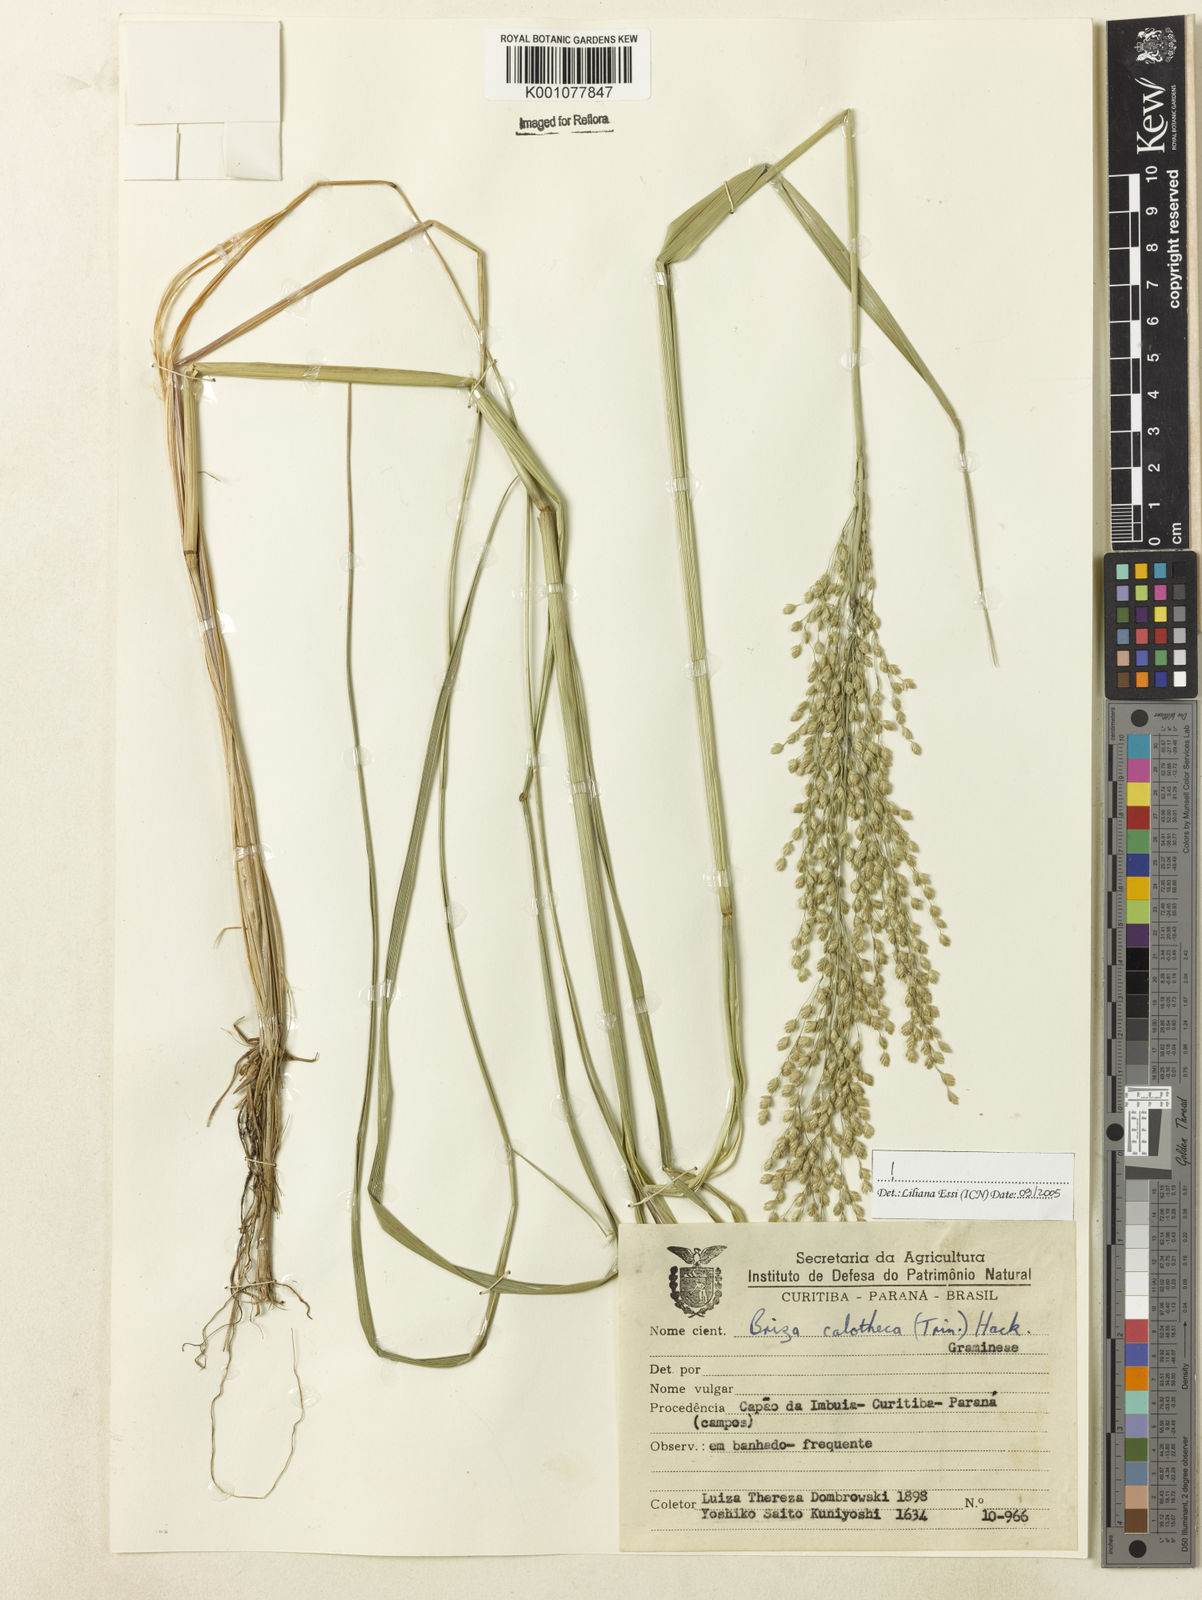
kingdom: Plantae
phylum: Tracheophyta
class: Liliopsida
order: Poales
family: Poaceae
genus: Poidium
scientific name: Poidium calotheca
